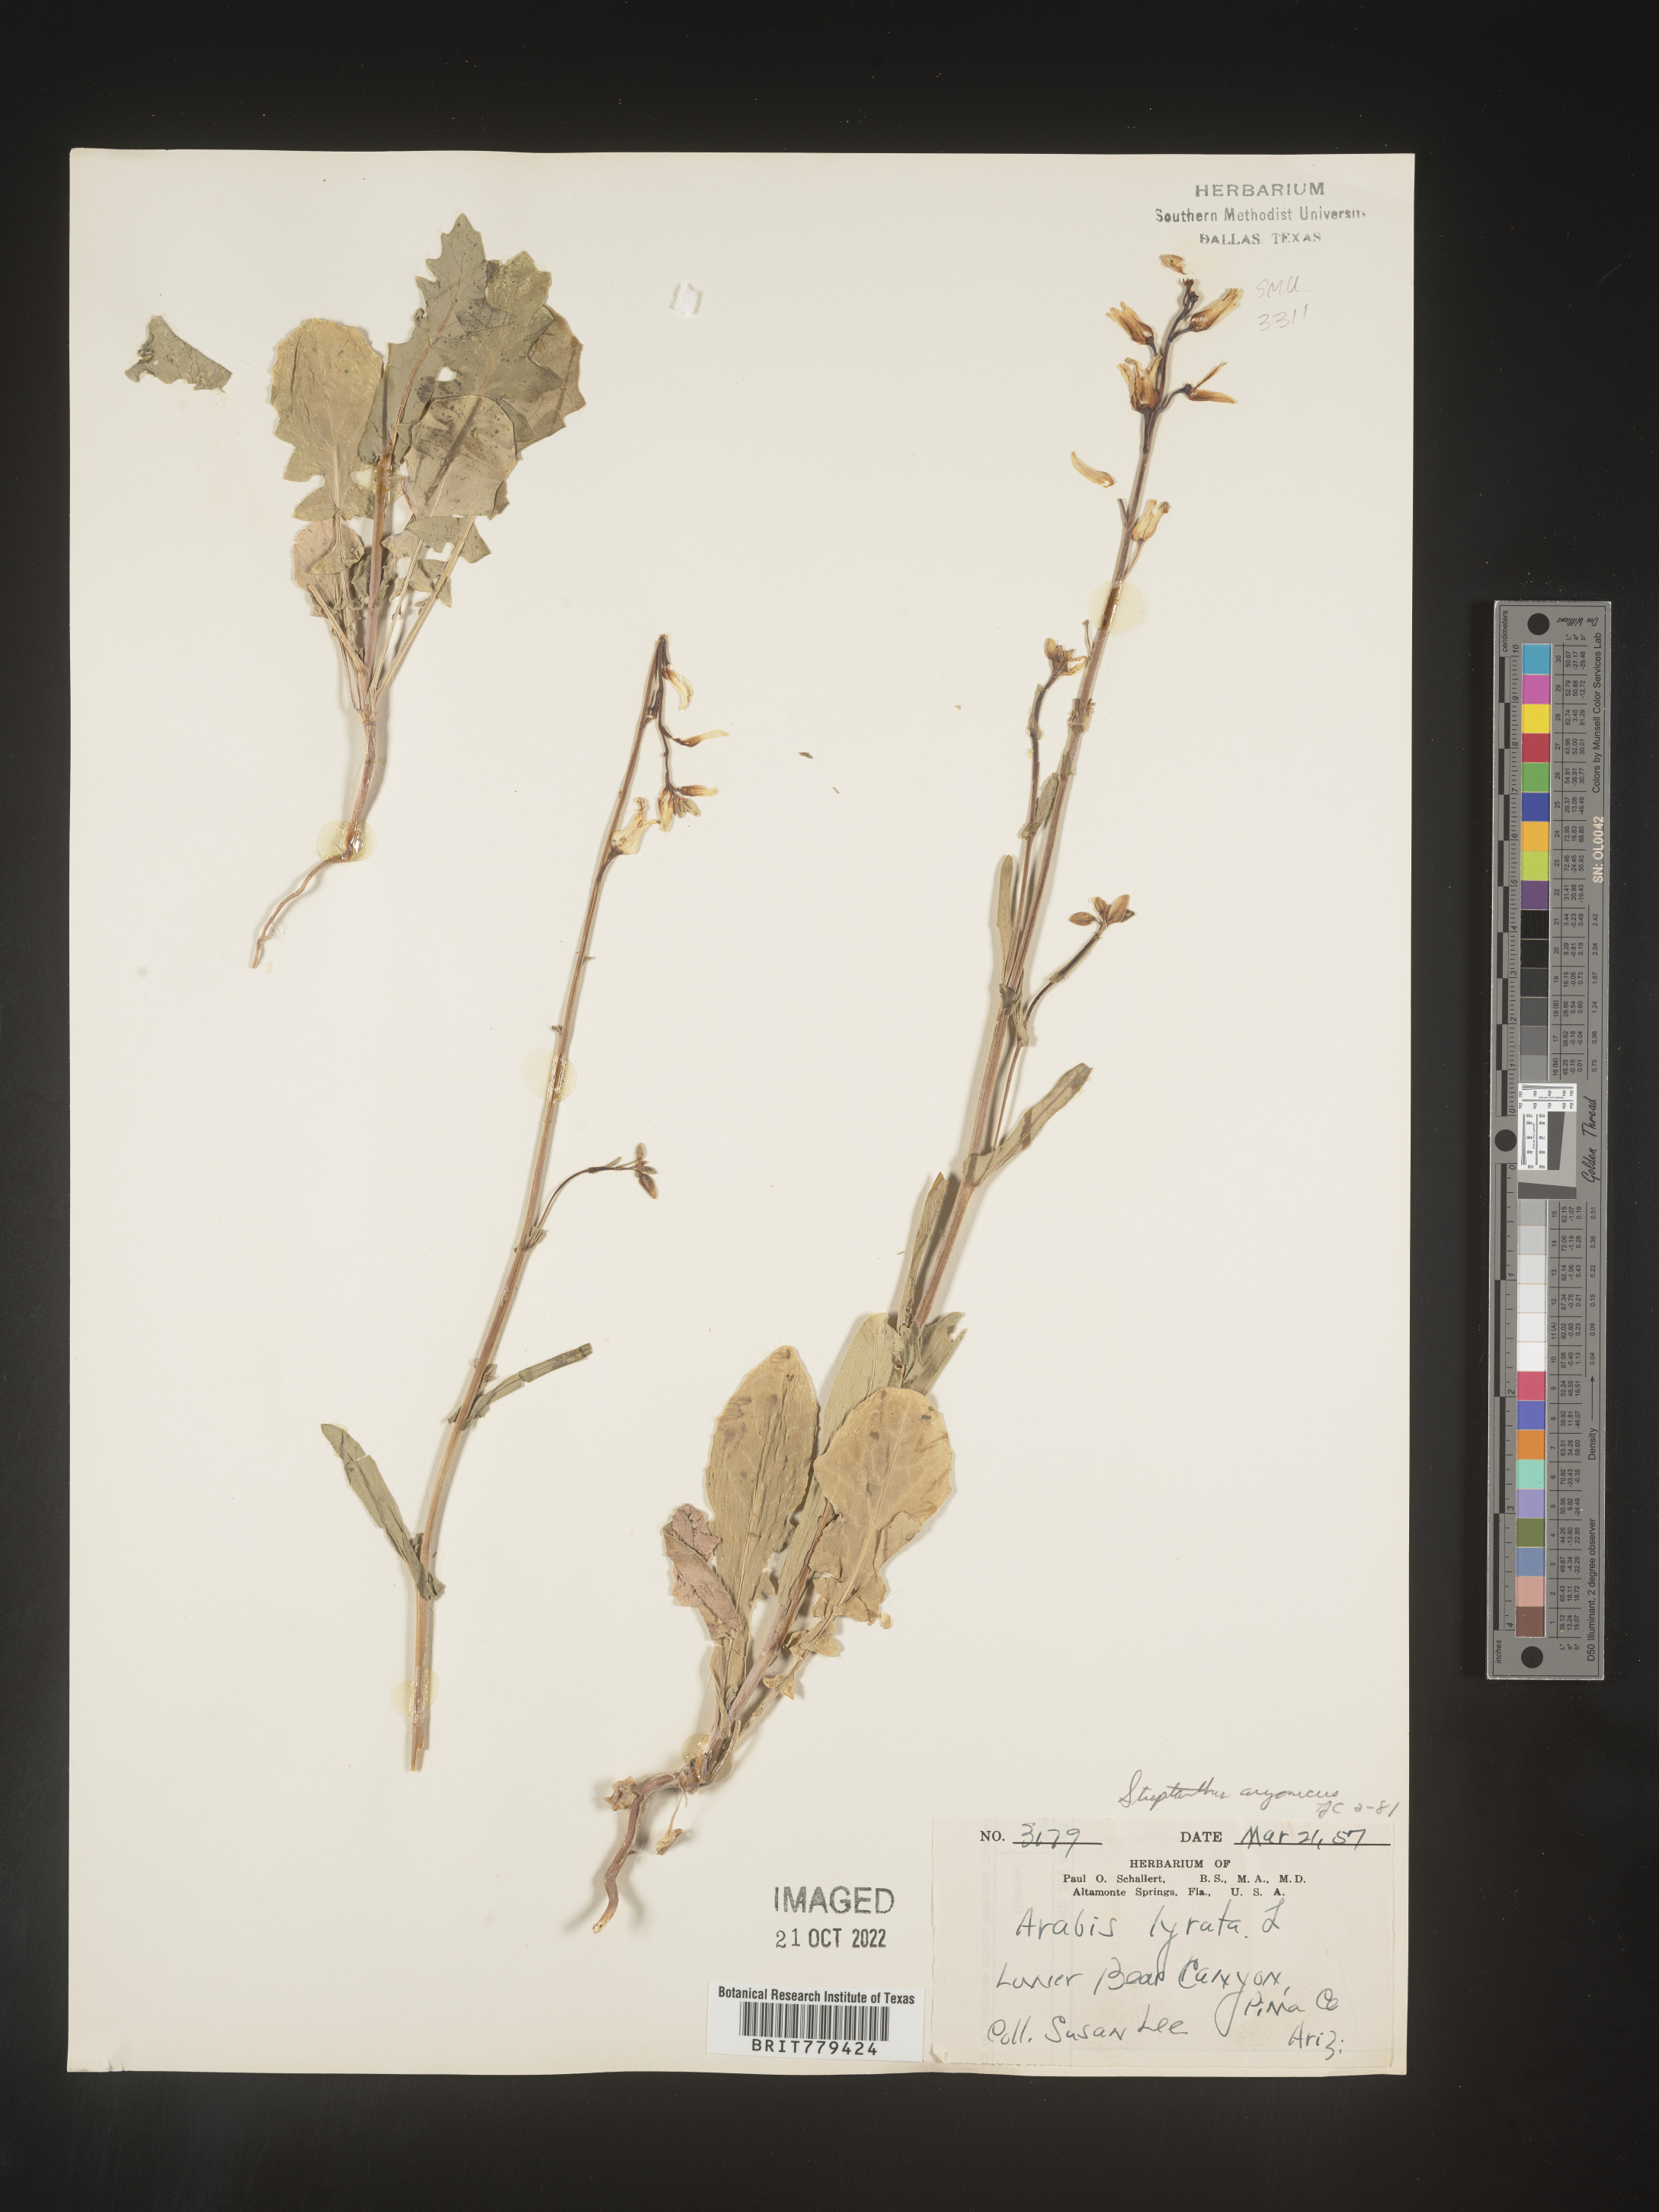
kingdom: Plantae
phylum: Tracheophyta
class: Magnoliopsida
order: Brassicales
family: Brassicaceae
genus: Streptanthus
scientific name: Streptanthus
